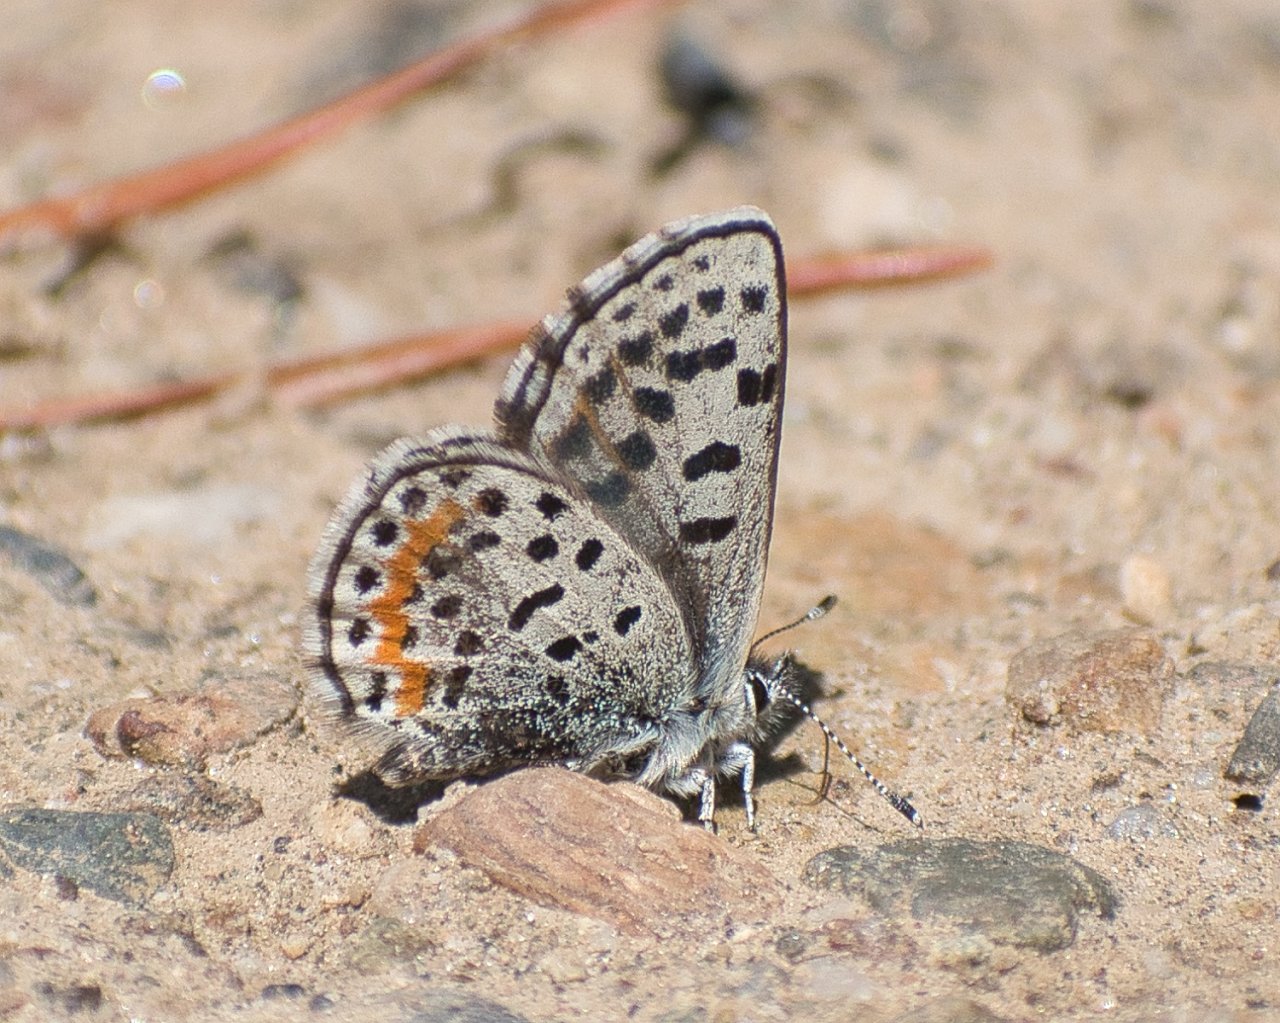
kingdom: Animalia
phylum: Arthropoda
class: Insecta
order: Lepidoptera
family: Lycaenidae
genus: Euphilotes
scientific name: Euphilotes
